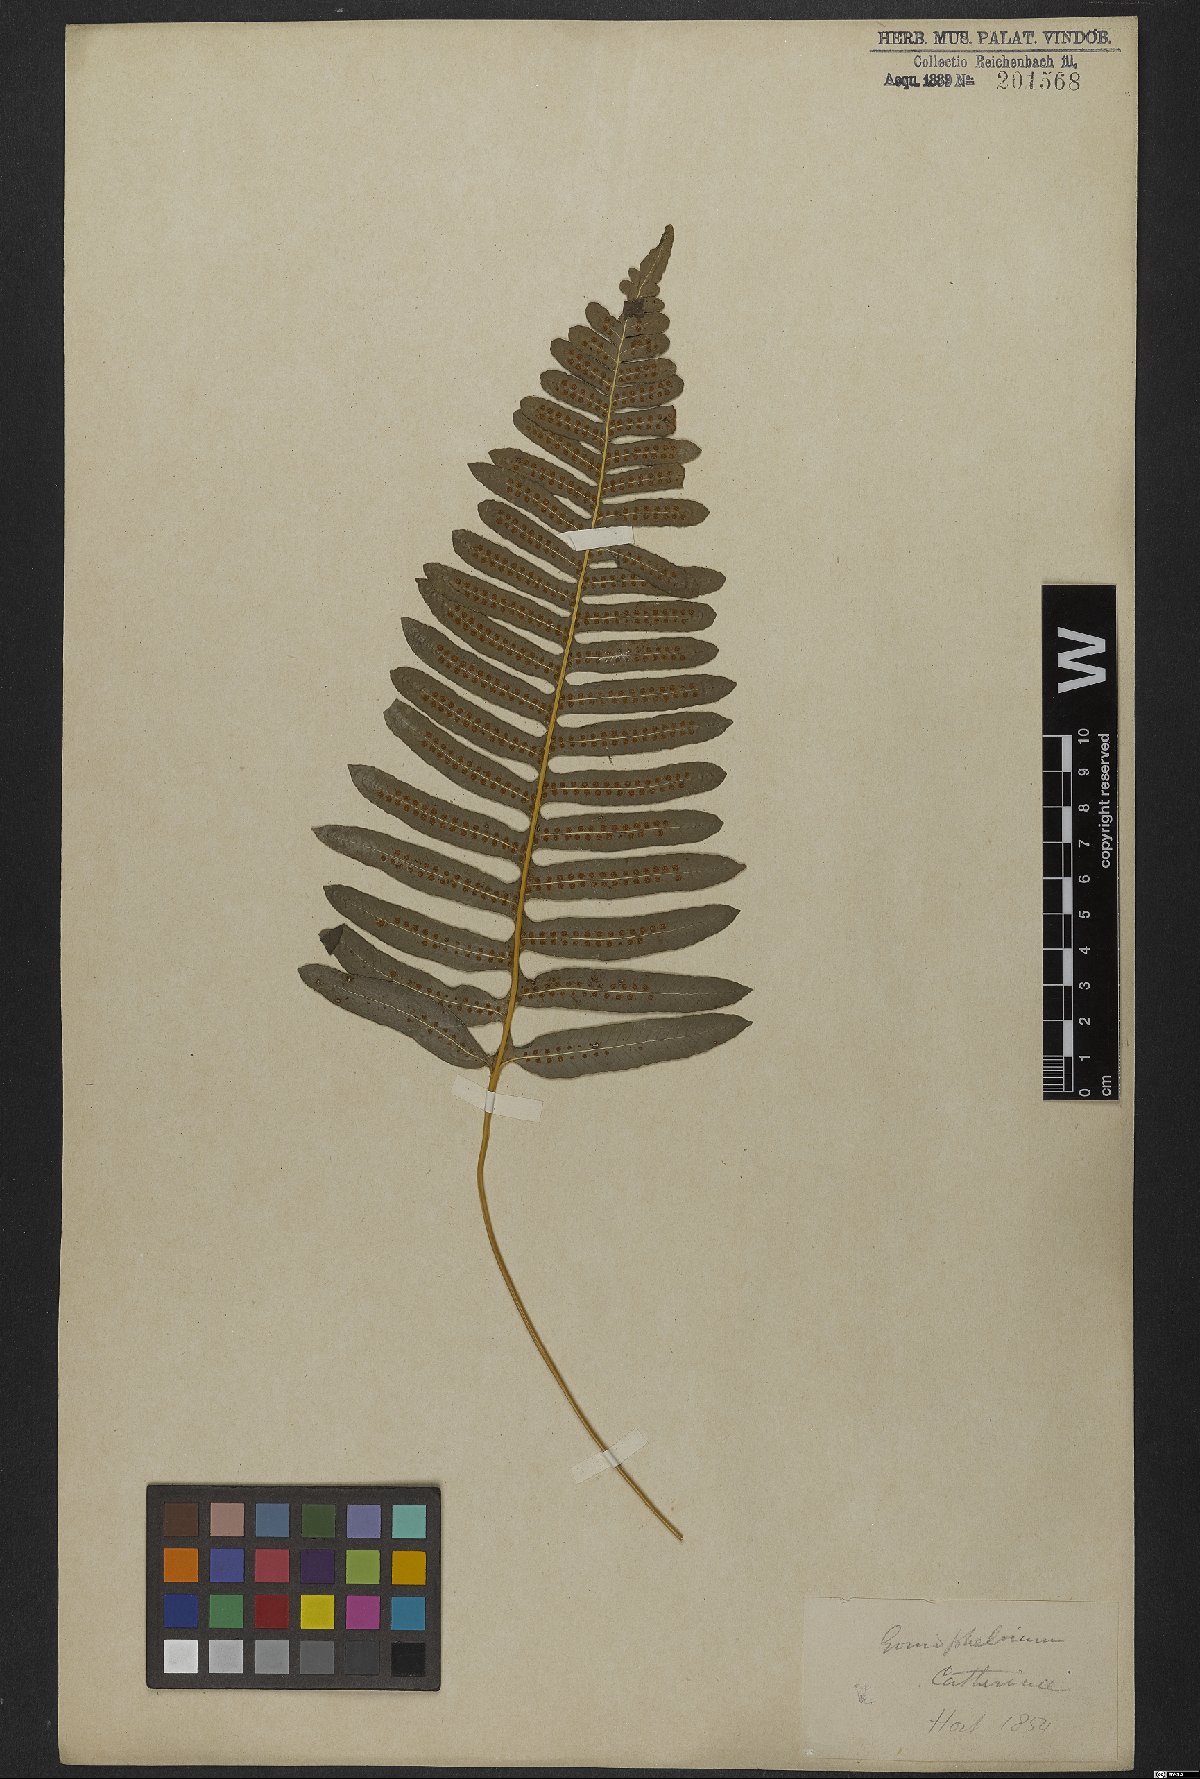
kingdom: Plantae
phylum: Tracheophyta
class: Polypodiopsida
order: Polypodiales
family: Polypodiaceae
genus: Serpocaulon
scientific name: Serpocaulon catharinae
